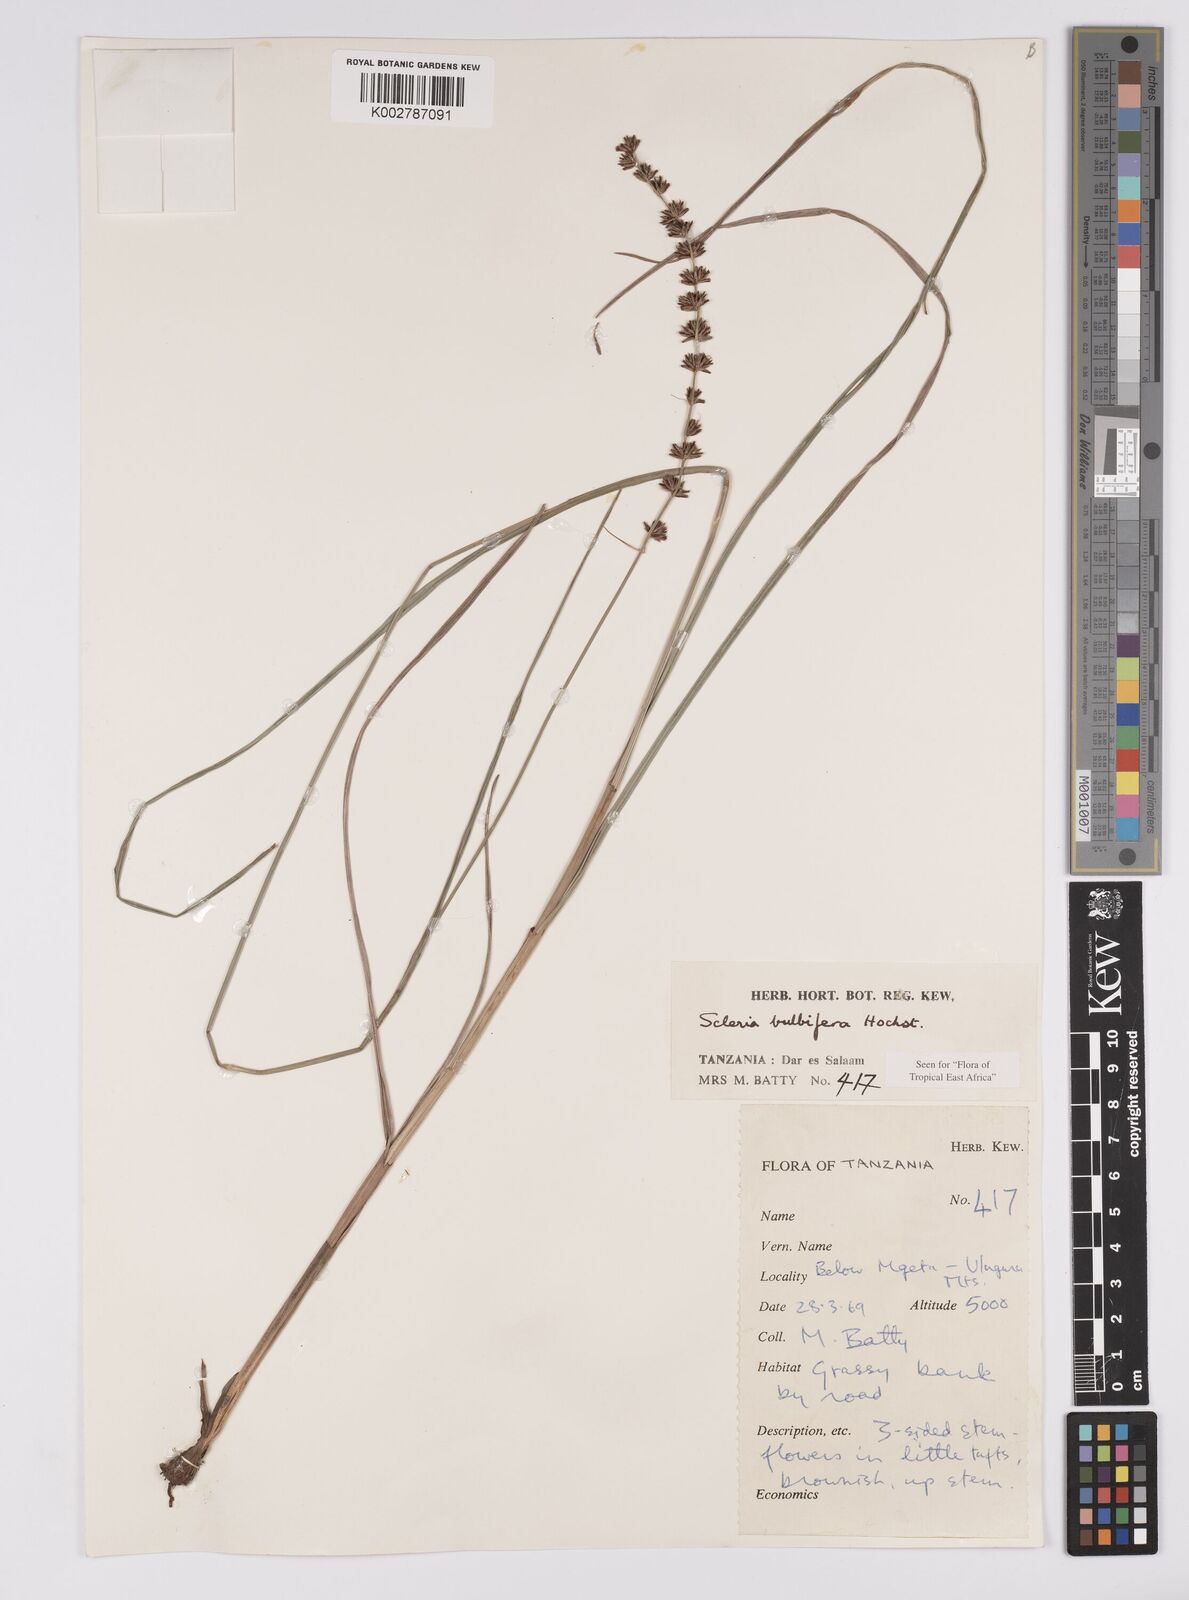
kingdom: Plantae
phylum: Tracheophyta
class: Liliopsida
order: Poales
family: Cyperaceae
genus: Scleria
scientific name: Scleria bulbifera
